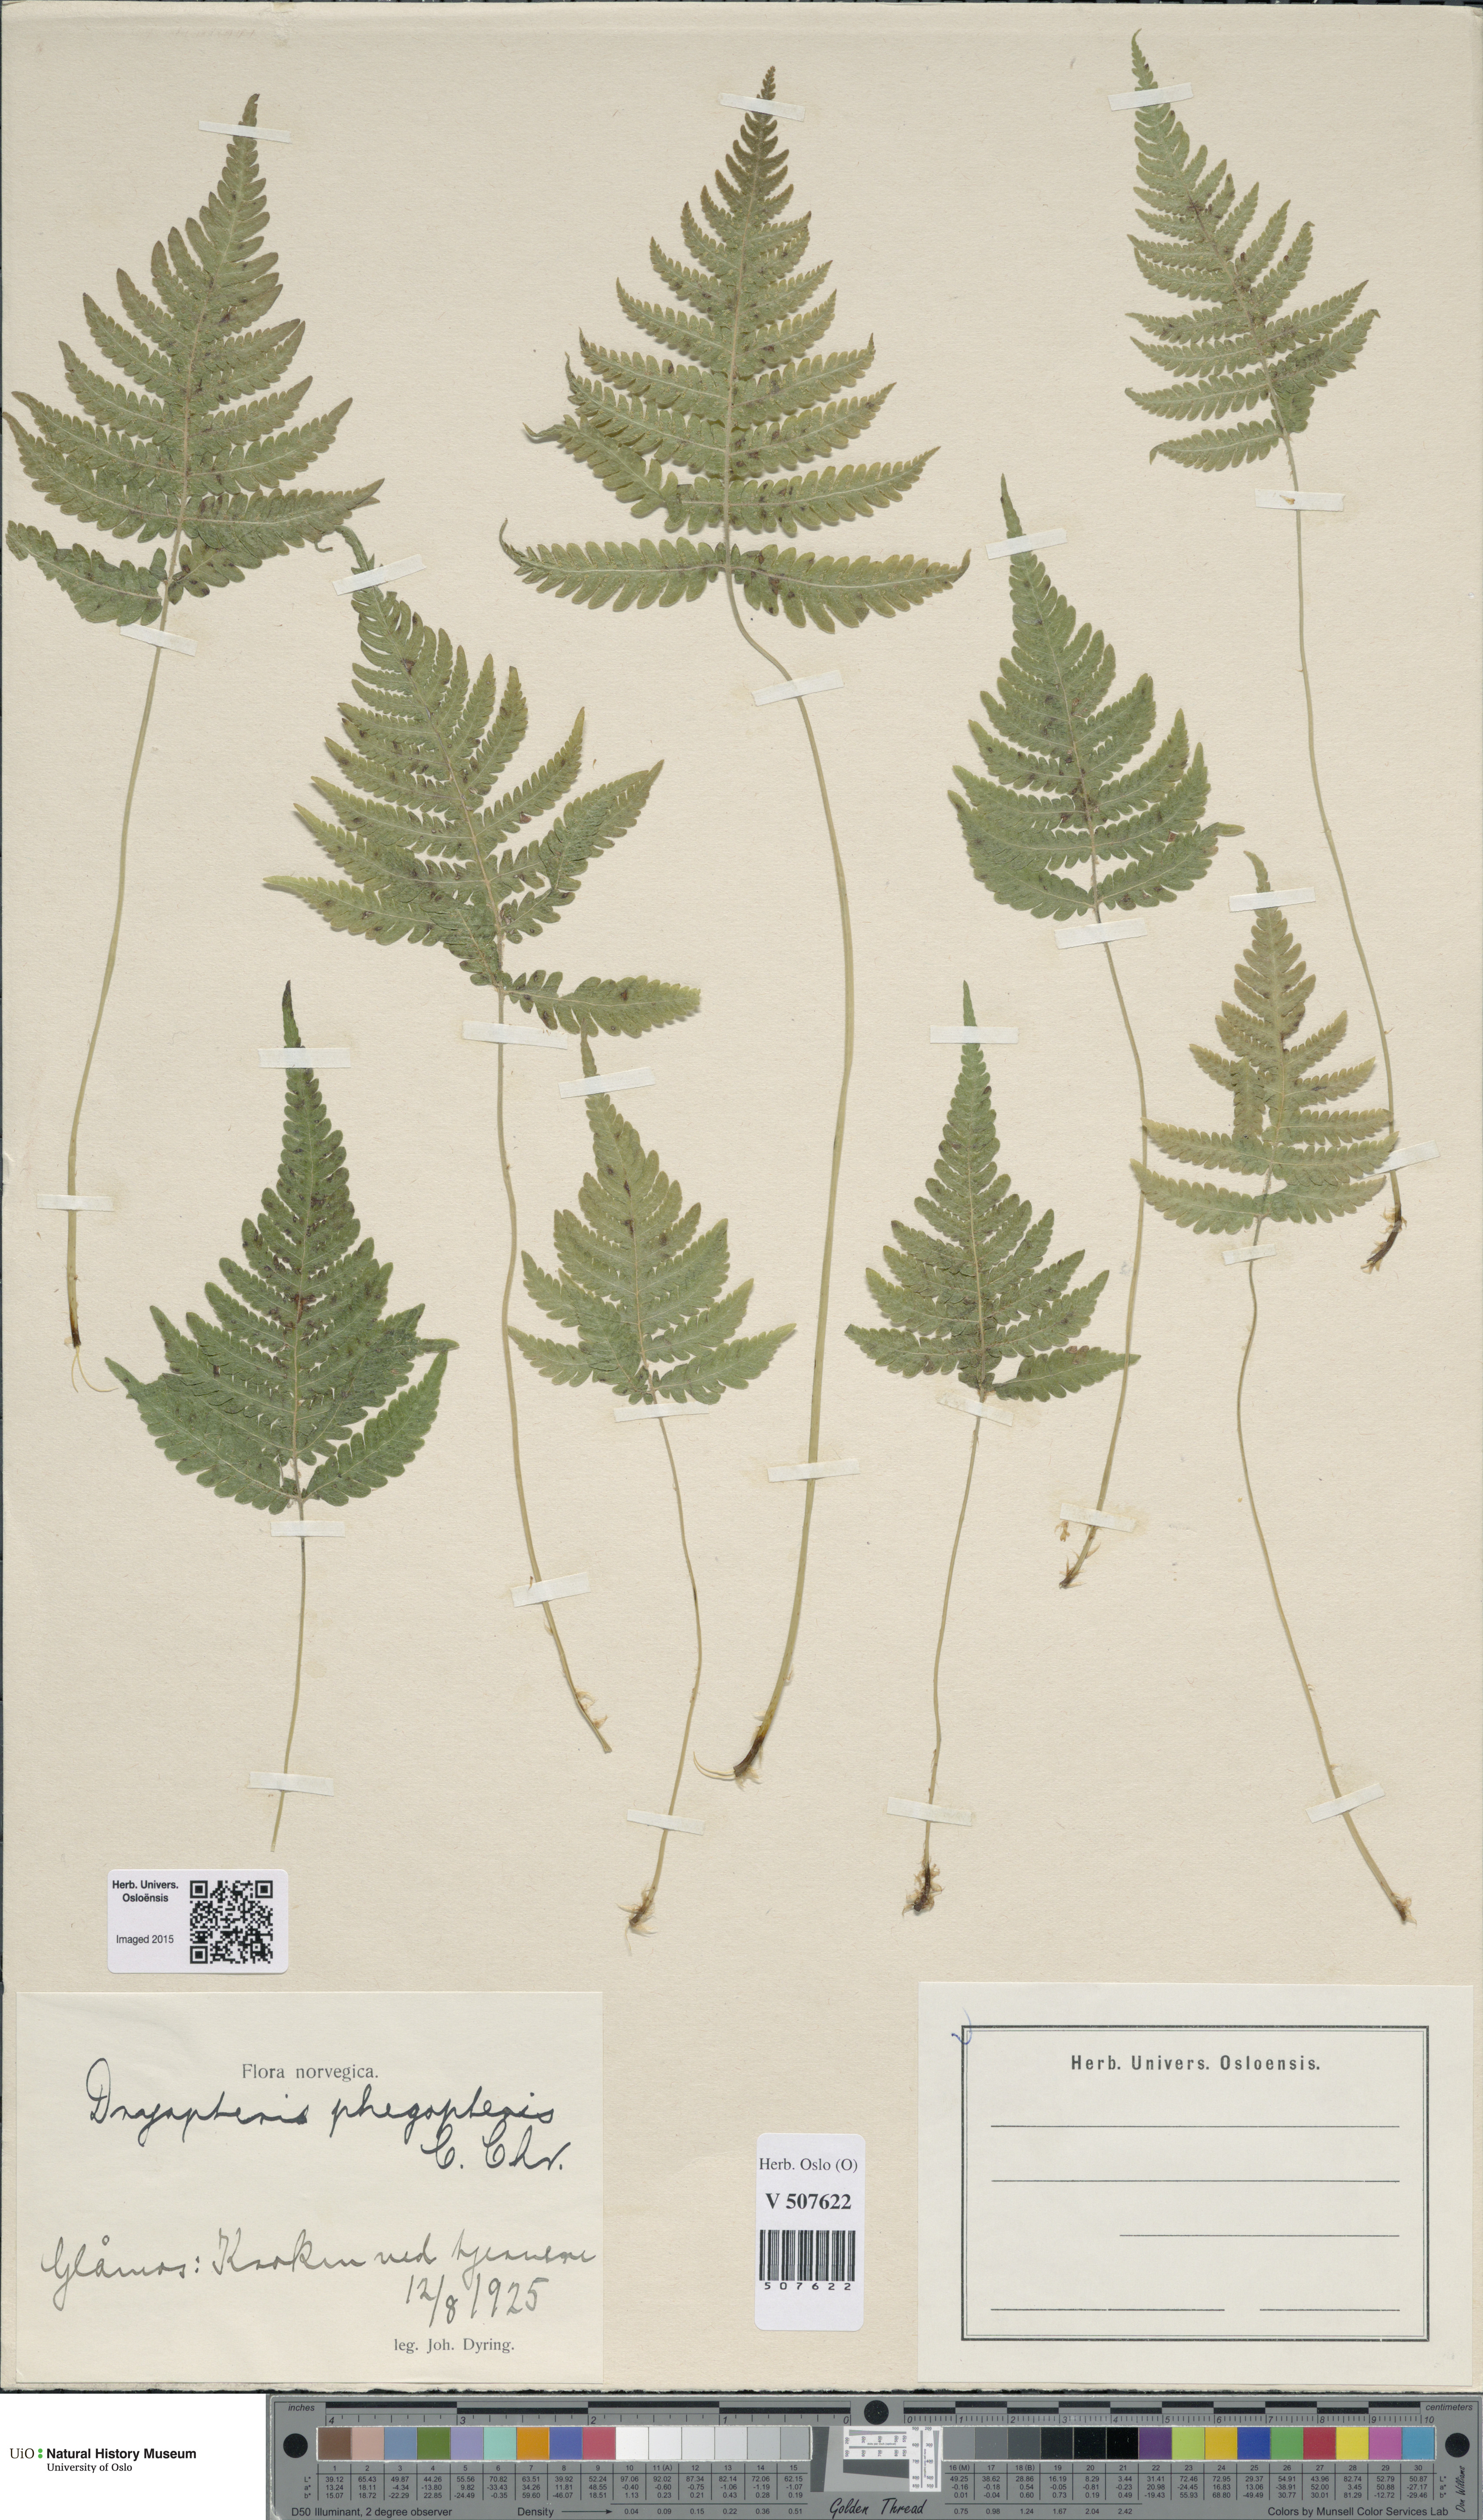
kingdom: Plantae
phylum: Tracheophyta
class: Polypodiopsida
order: Polypodiales
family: Thelypteridaceae
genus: Phegopteris
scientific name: Phegopteris connectilis
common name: Beech fern
